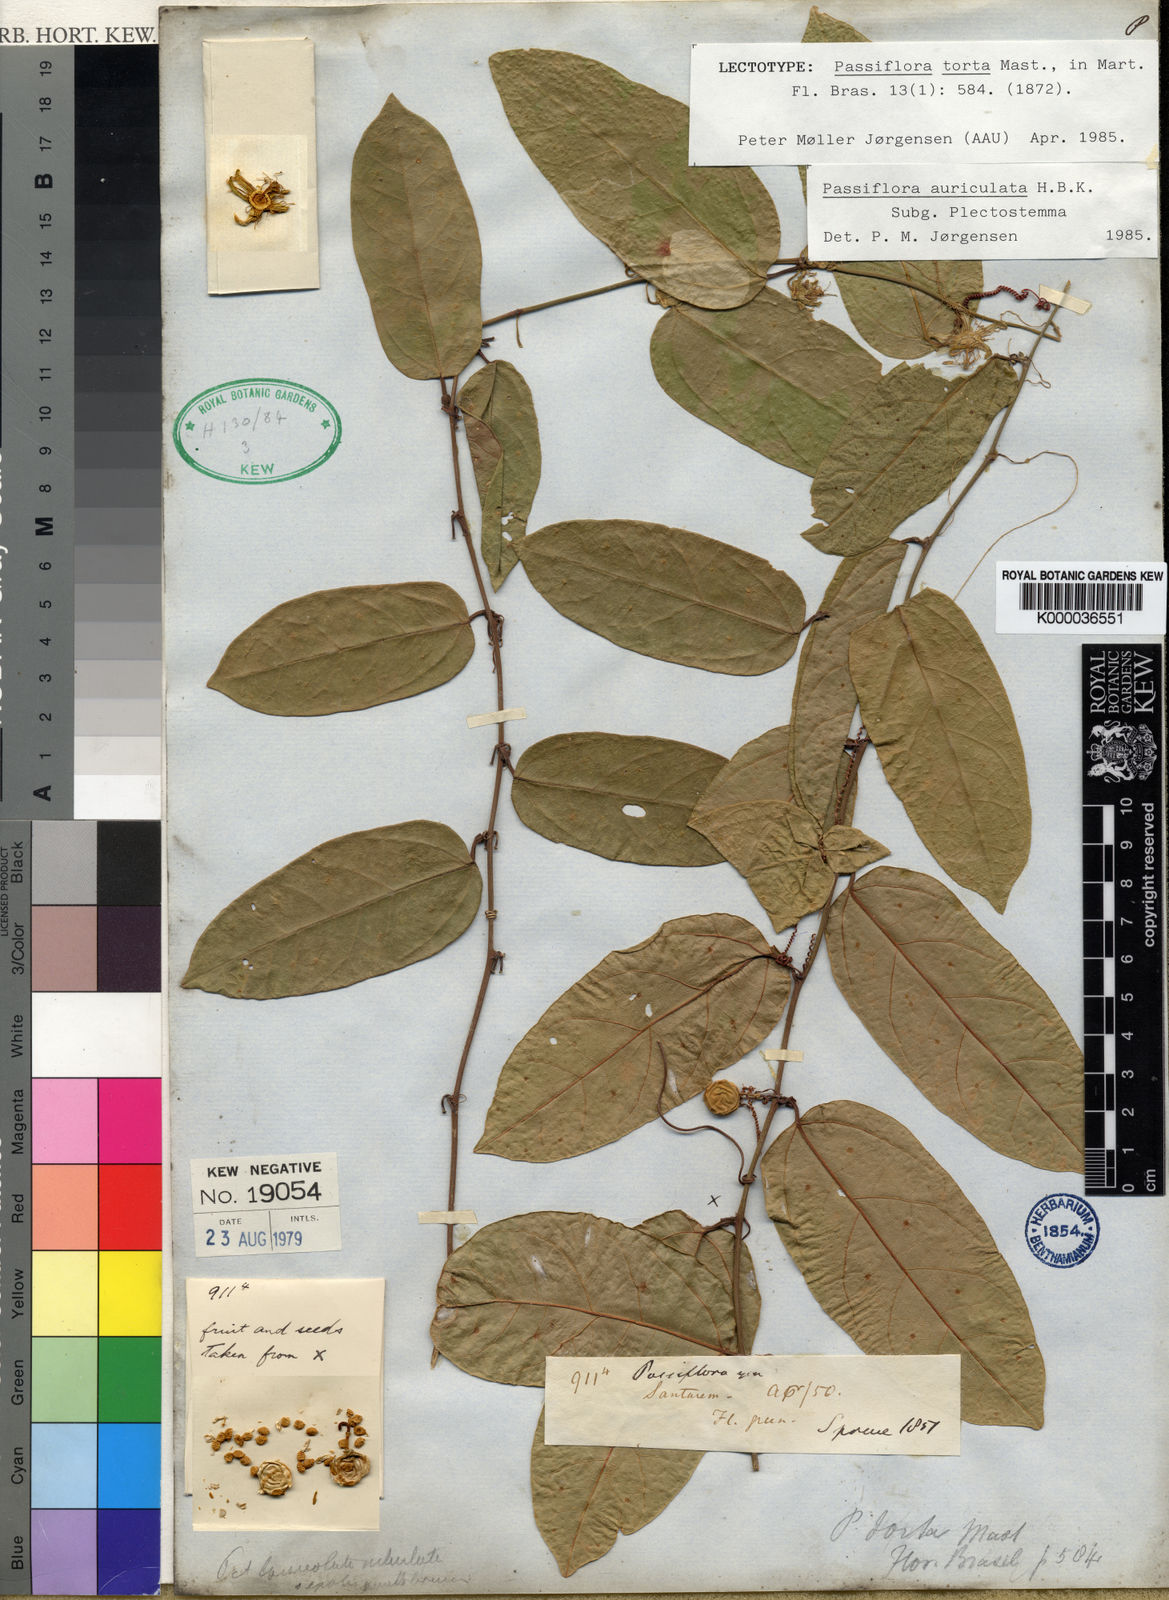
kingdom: Plantae
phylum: Tracheophyta
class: Magnoliopsida
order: Malpighiales
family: Passifloraceae
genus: Passiflora
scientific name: Passiflora
